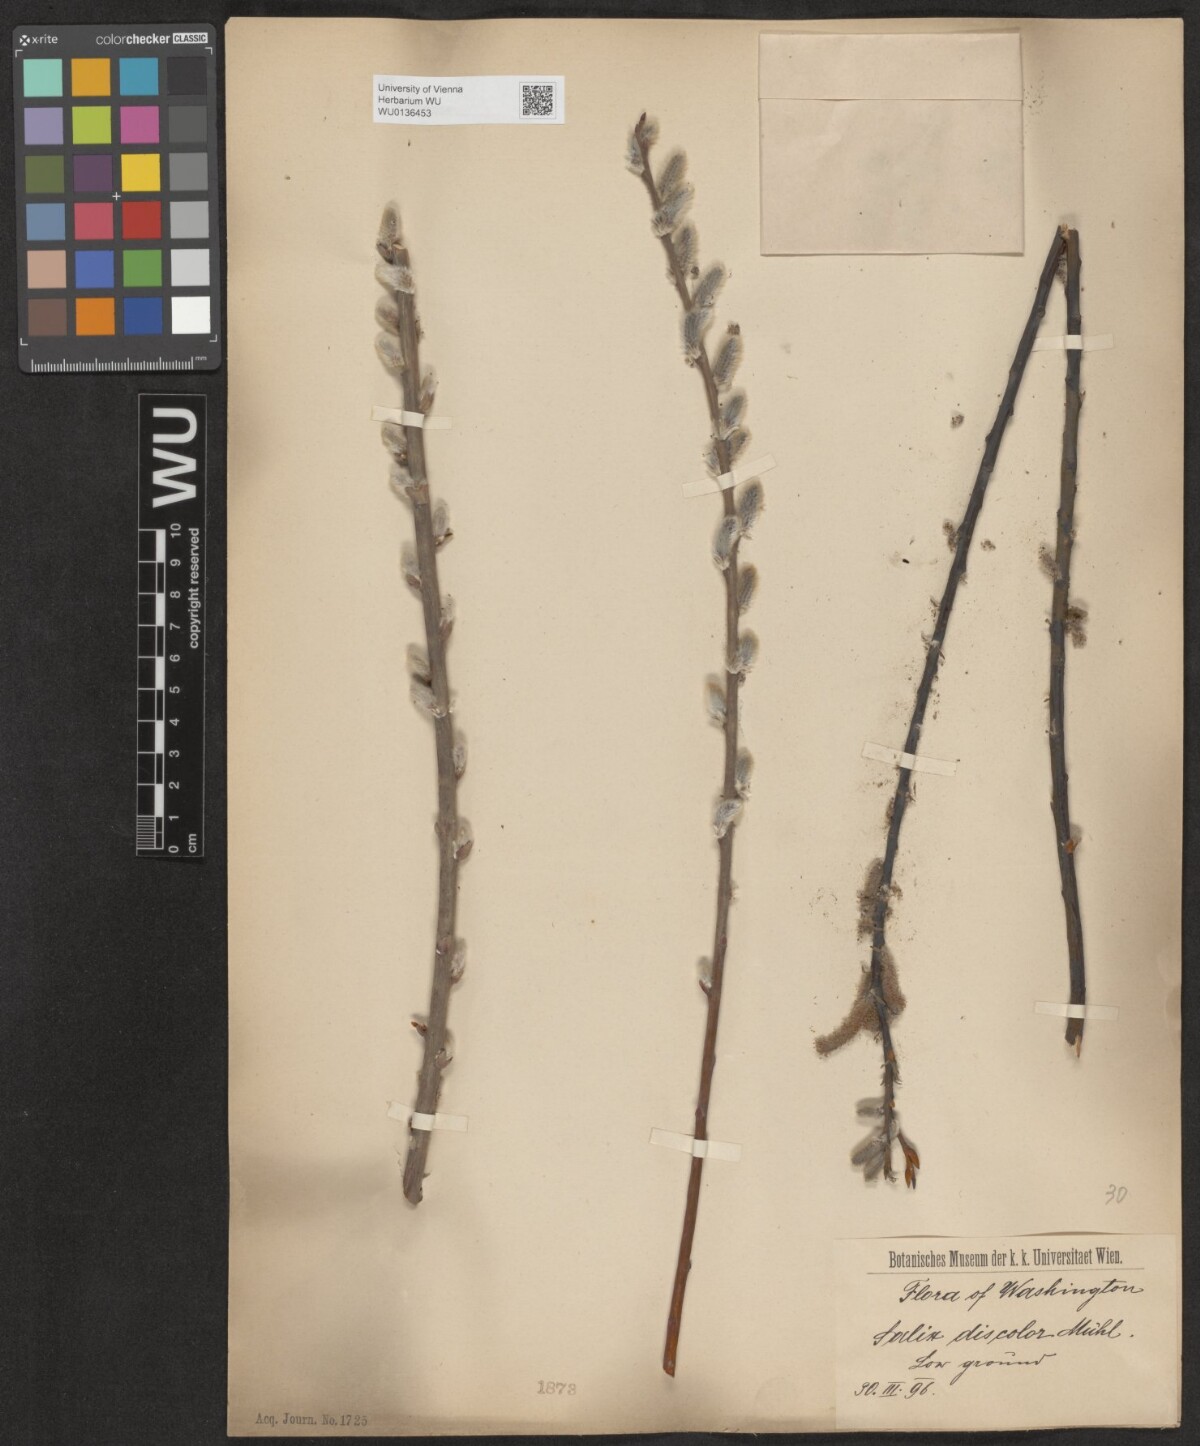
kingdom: Plantae
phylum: Tracheophyta
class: Magnoliopsida
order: Malpighiales
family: Salicaceae
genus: Salix
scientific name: Salix discolor
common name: Glaucous willow
